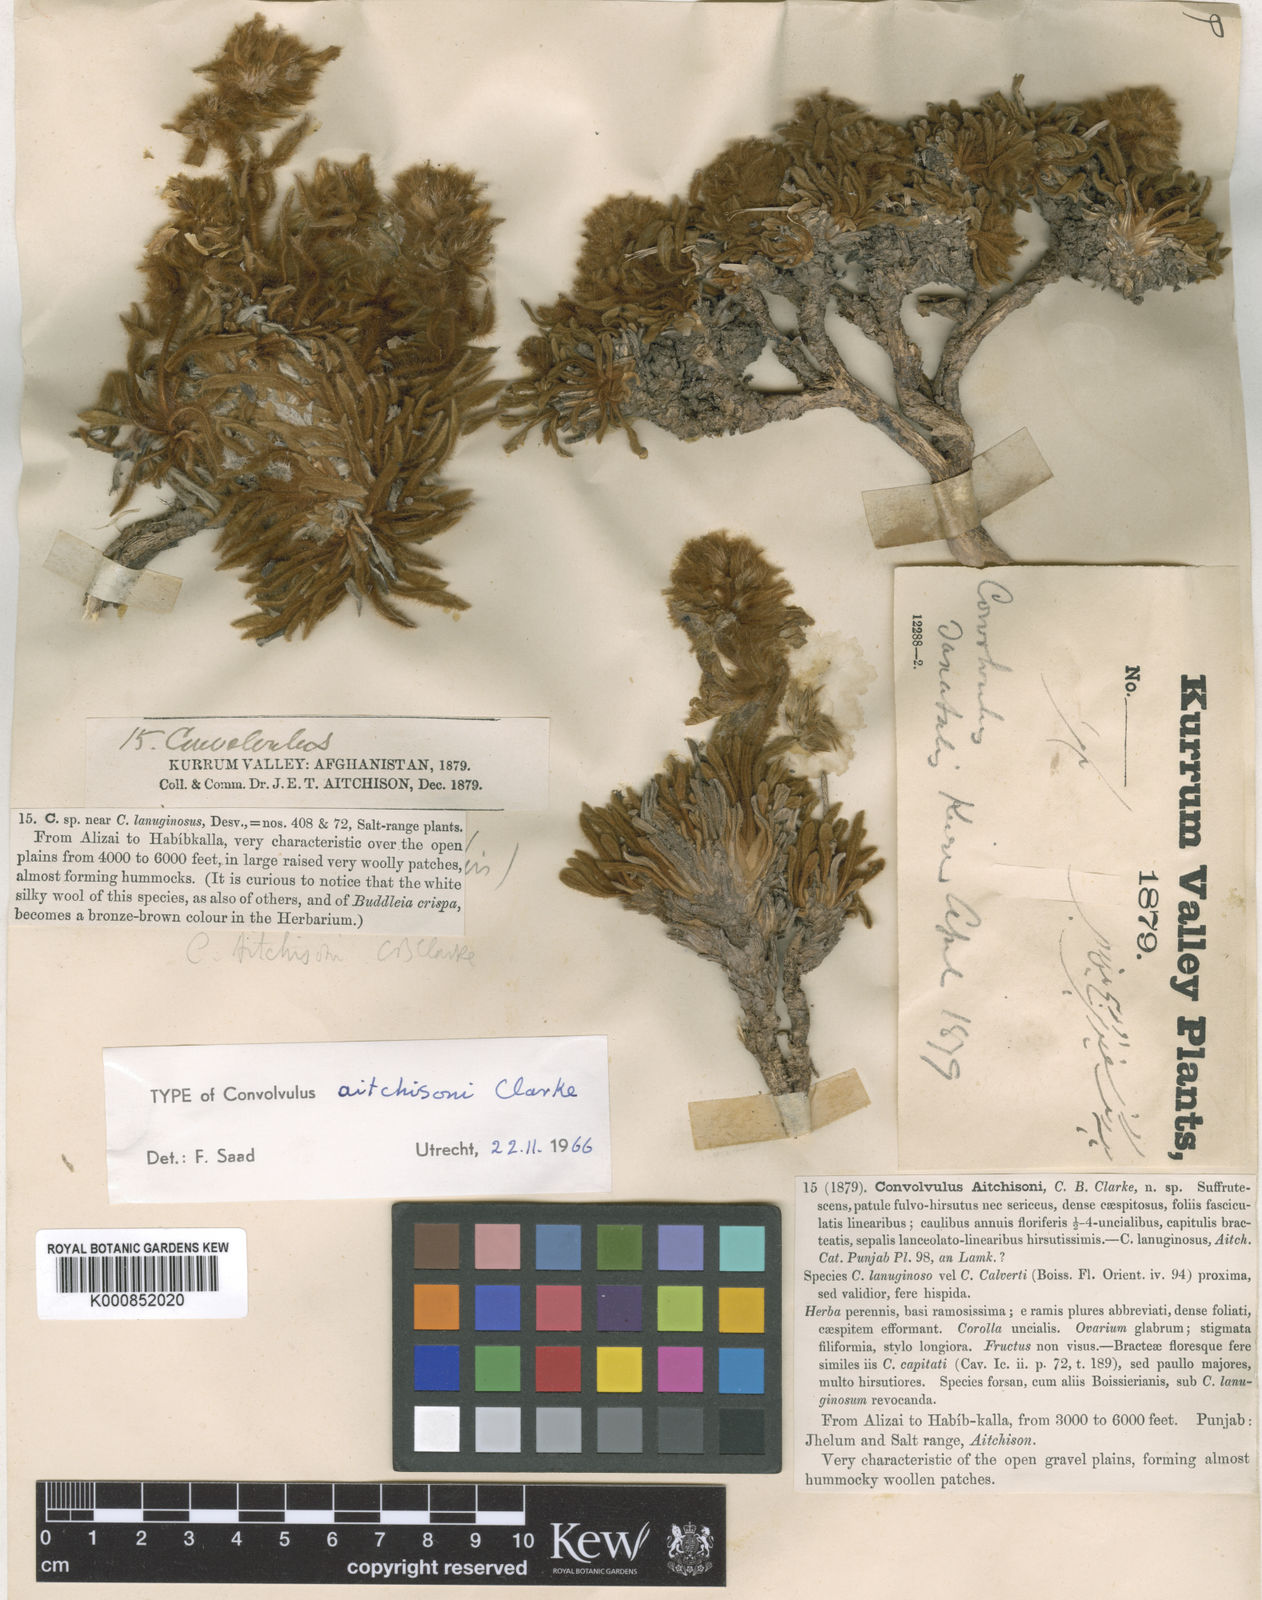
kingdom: Plantae
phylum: Tracheophyta
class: Magnoliopsida
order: Solanales
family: Convolvulaceae
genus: Convolvulus
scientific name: Convolvulus aitchisonii
